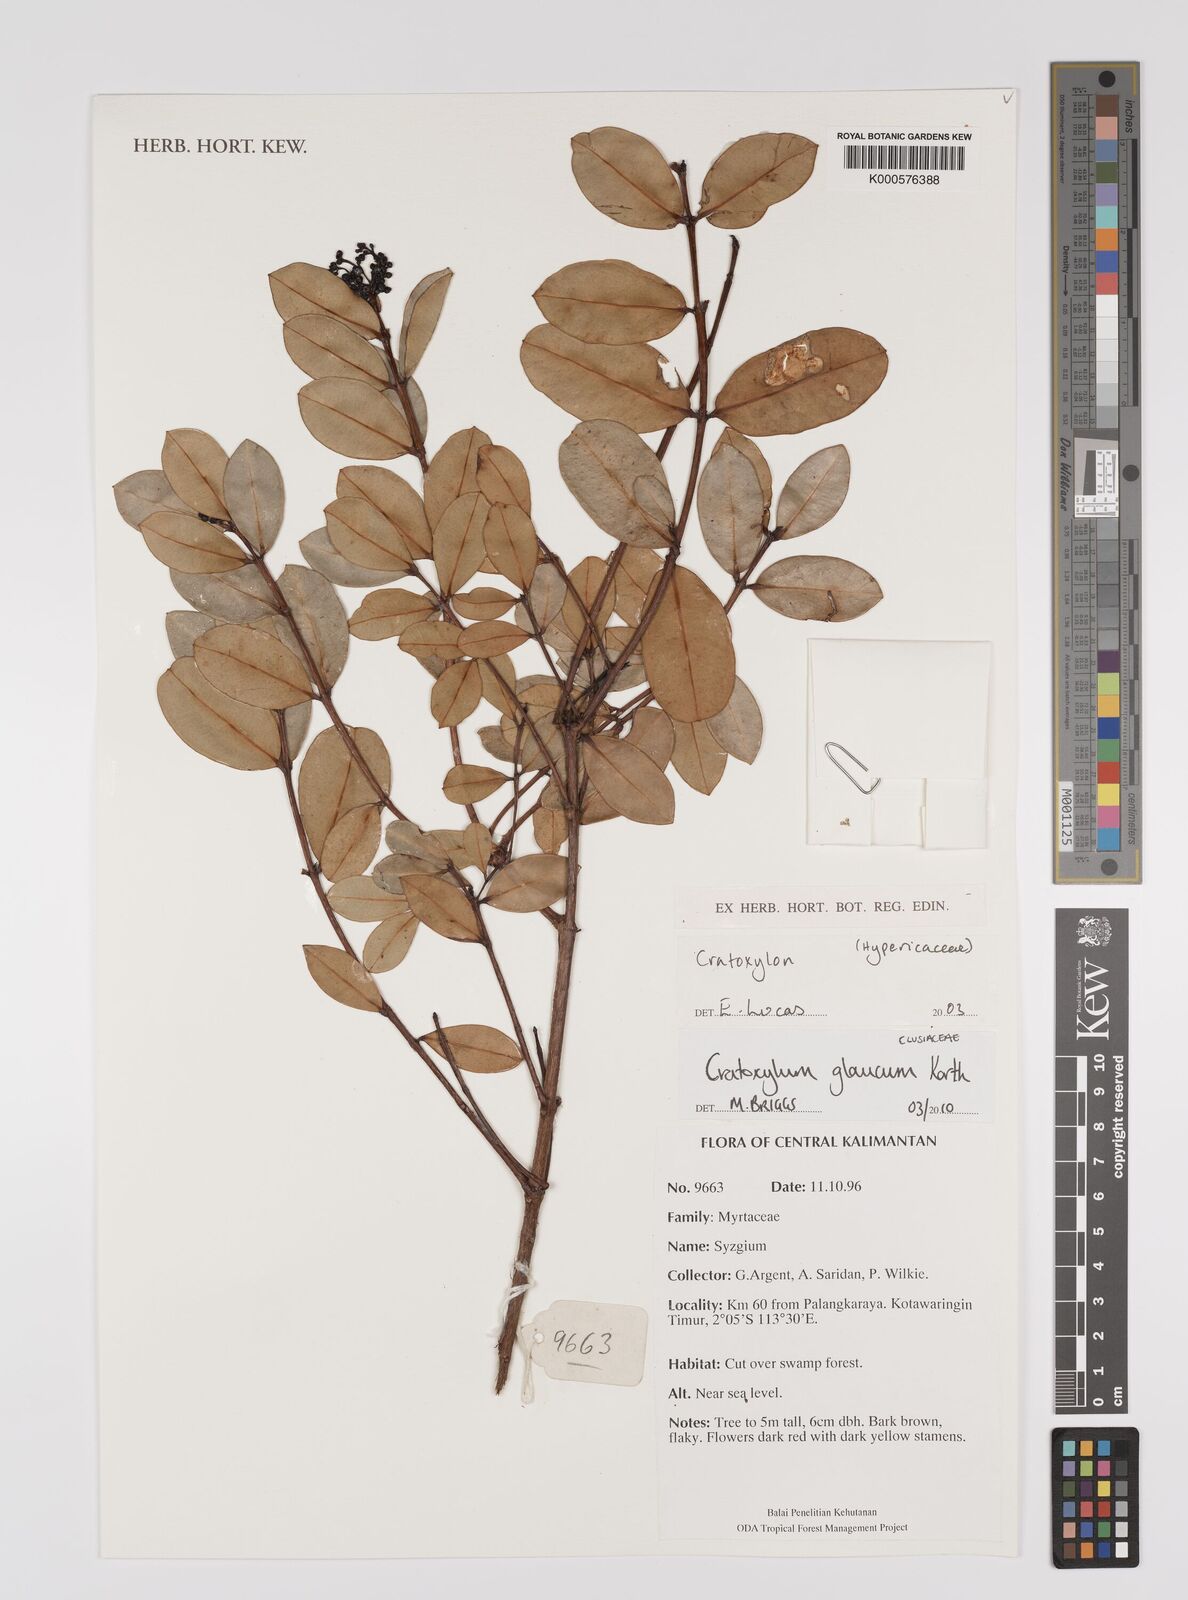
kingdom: Plantae
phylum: Tracheophyta
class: Magnoliopsida
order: Malpighiales
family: Hypericaceae
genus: Cratoxylum
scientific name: Cratoxylum glaucum
